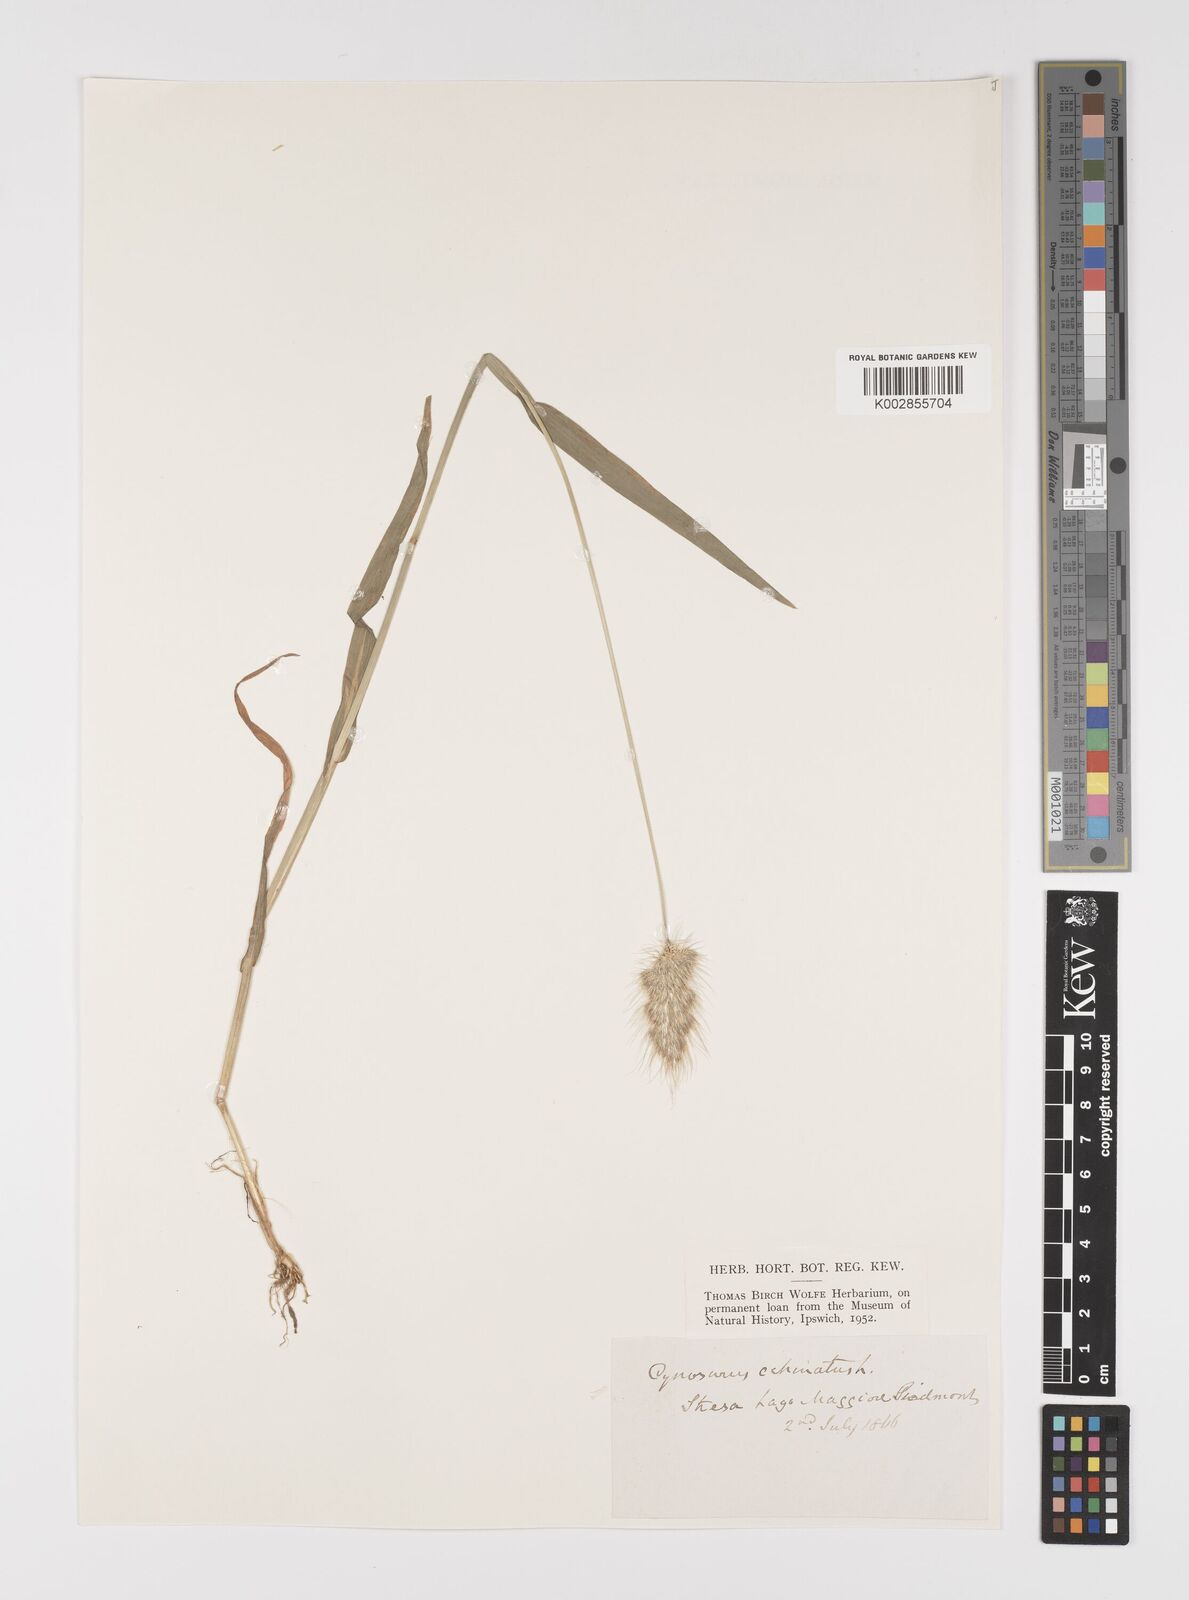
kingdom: Plantae
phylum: Tracheophyta
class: Liliopsida
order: Poales
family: Poaceae
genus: Cynosurus
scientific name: Cynosurus echinatus
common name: Rough dog's-tail
